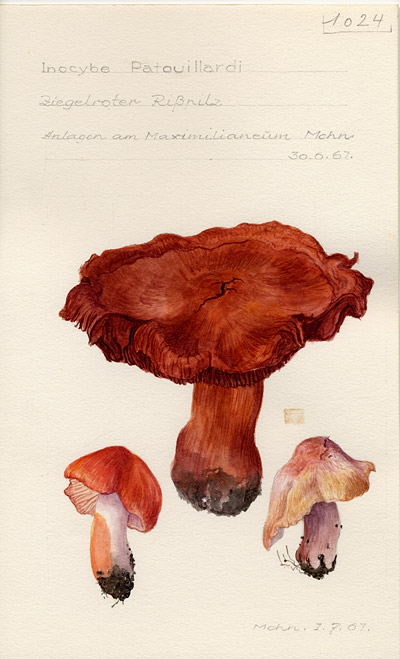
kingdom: Fungi
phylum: Basidiomycota
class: Agaricomycetes
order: Agaricales
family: Inocybaceae
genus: Inosperma
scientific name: Inosperma erubescens
